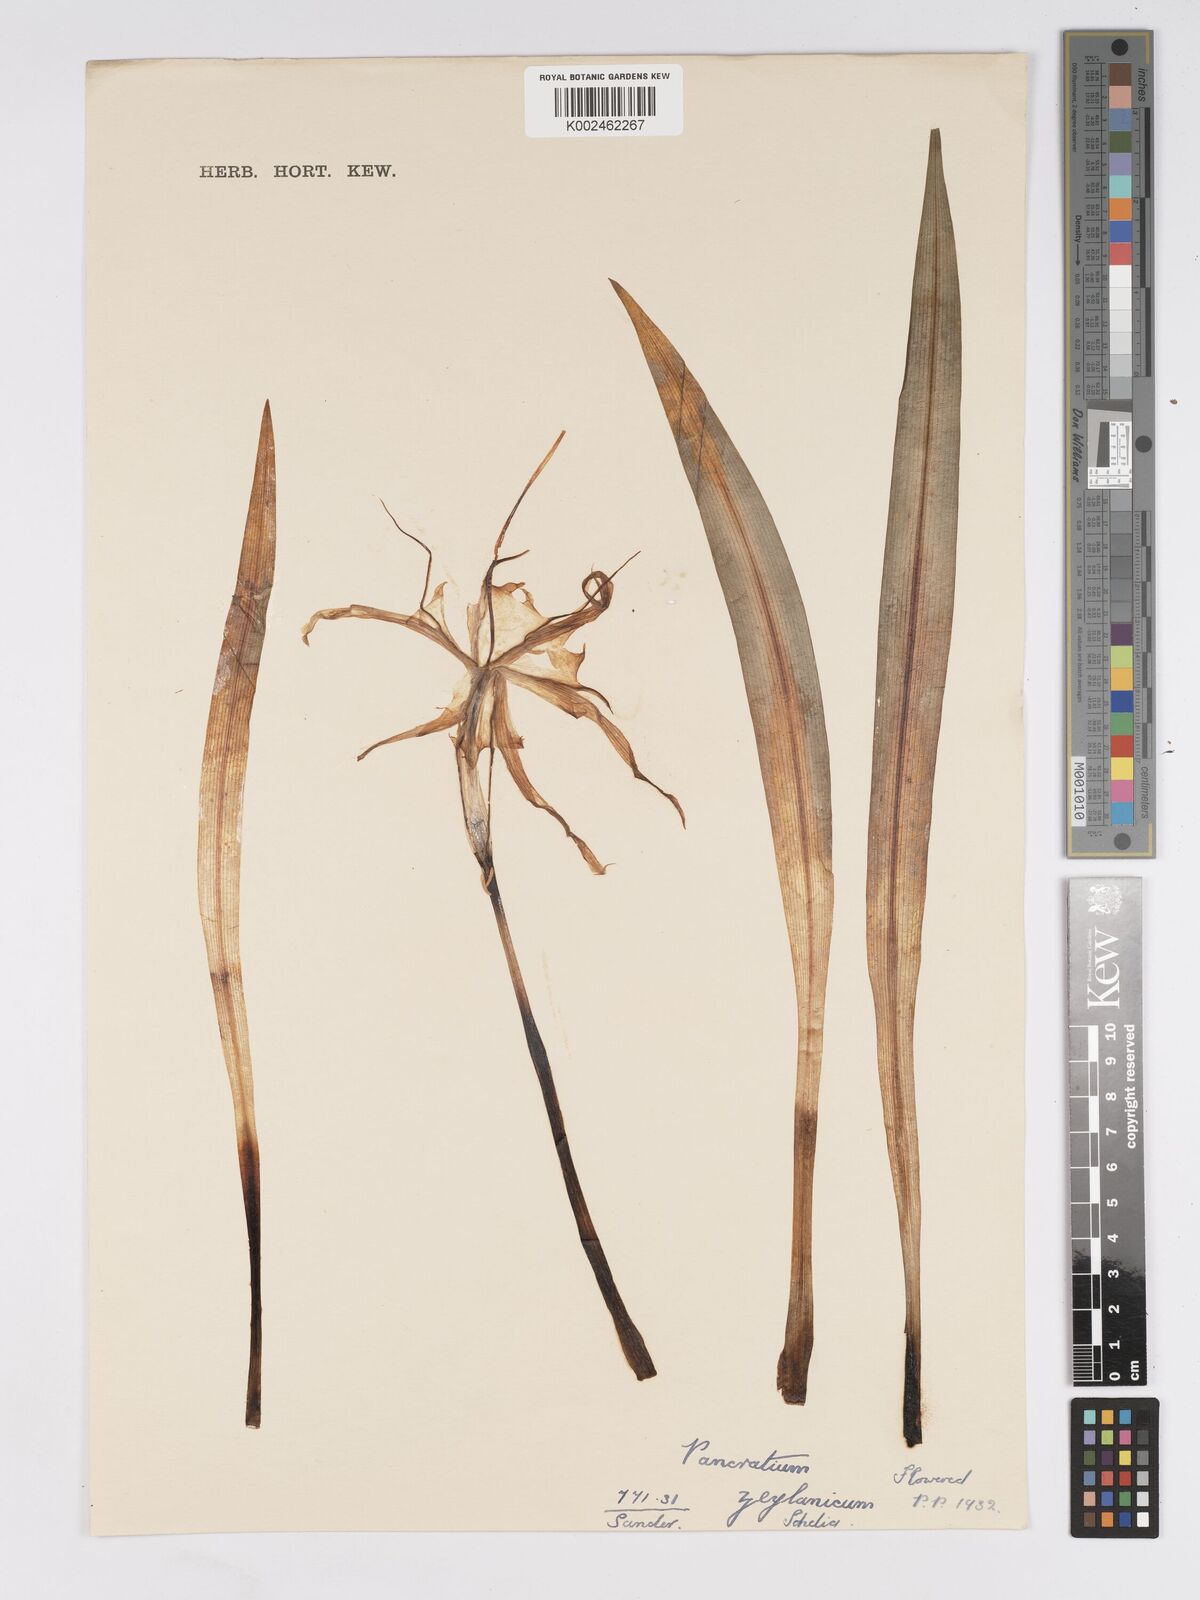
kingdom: Plantae
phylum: Tracheophyta
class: Liliopsida
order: Asparagales
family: Amaryllidaceae
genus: Pancratium
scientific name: Pancratium zeylanicum
